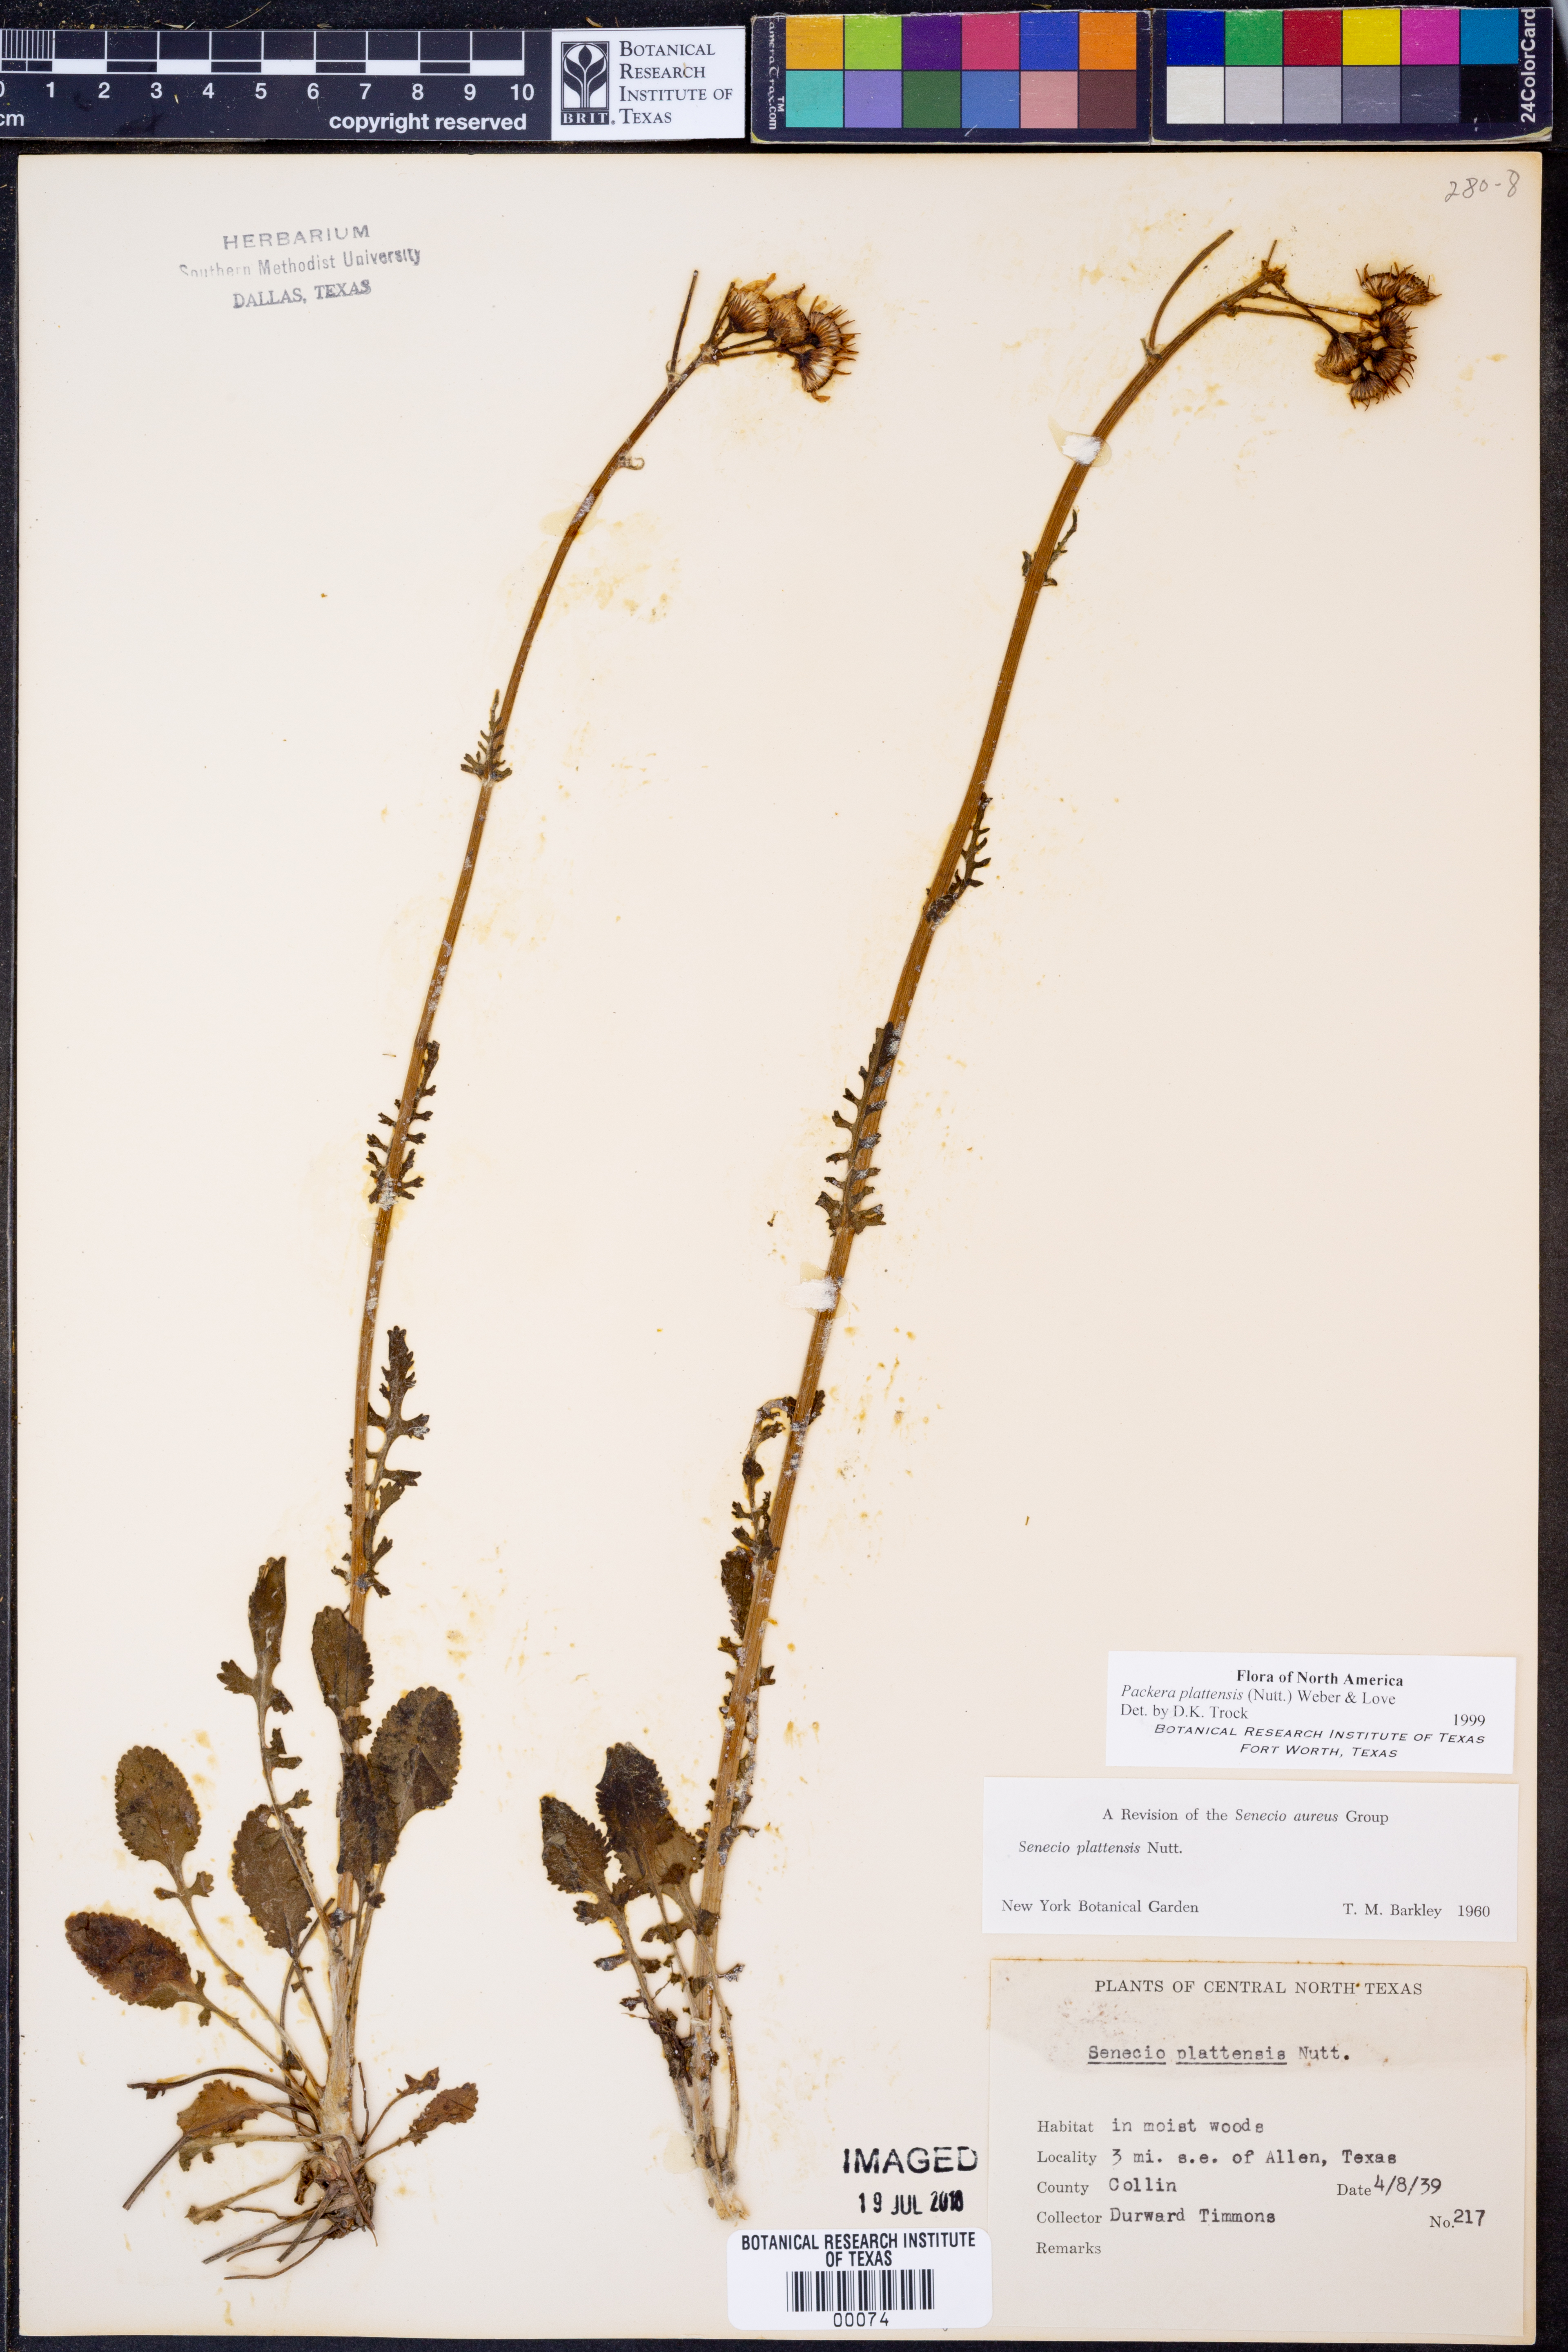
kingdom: Plantae
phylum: Tracheophyta
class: Magnoliopsida
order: Asterales
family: Asteraceae
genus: Packera
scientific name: Packera plattensis
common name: Prairie groundsel
